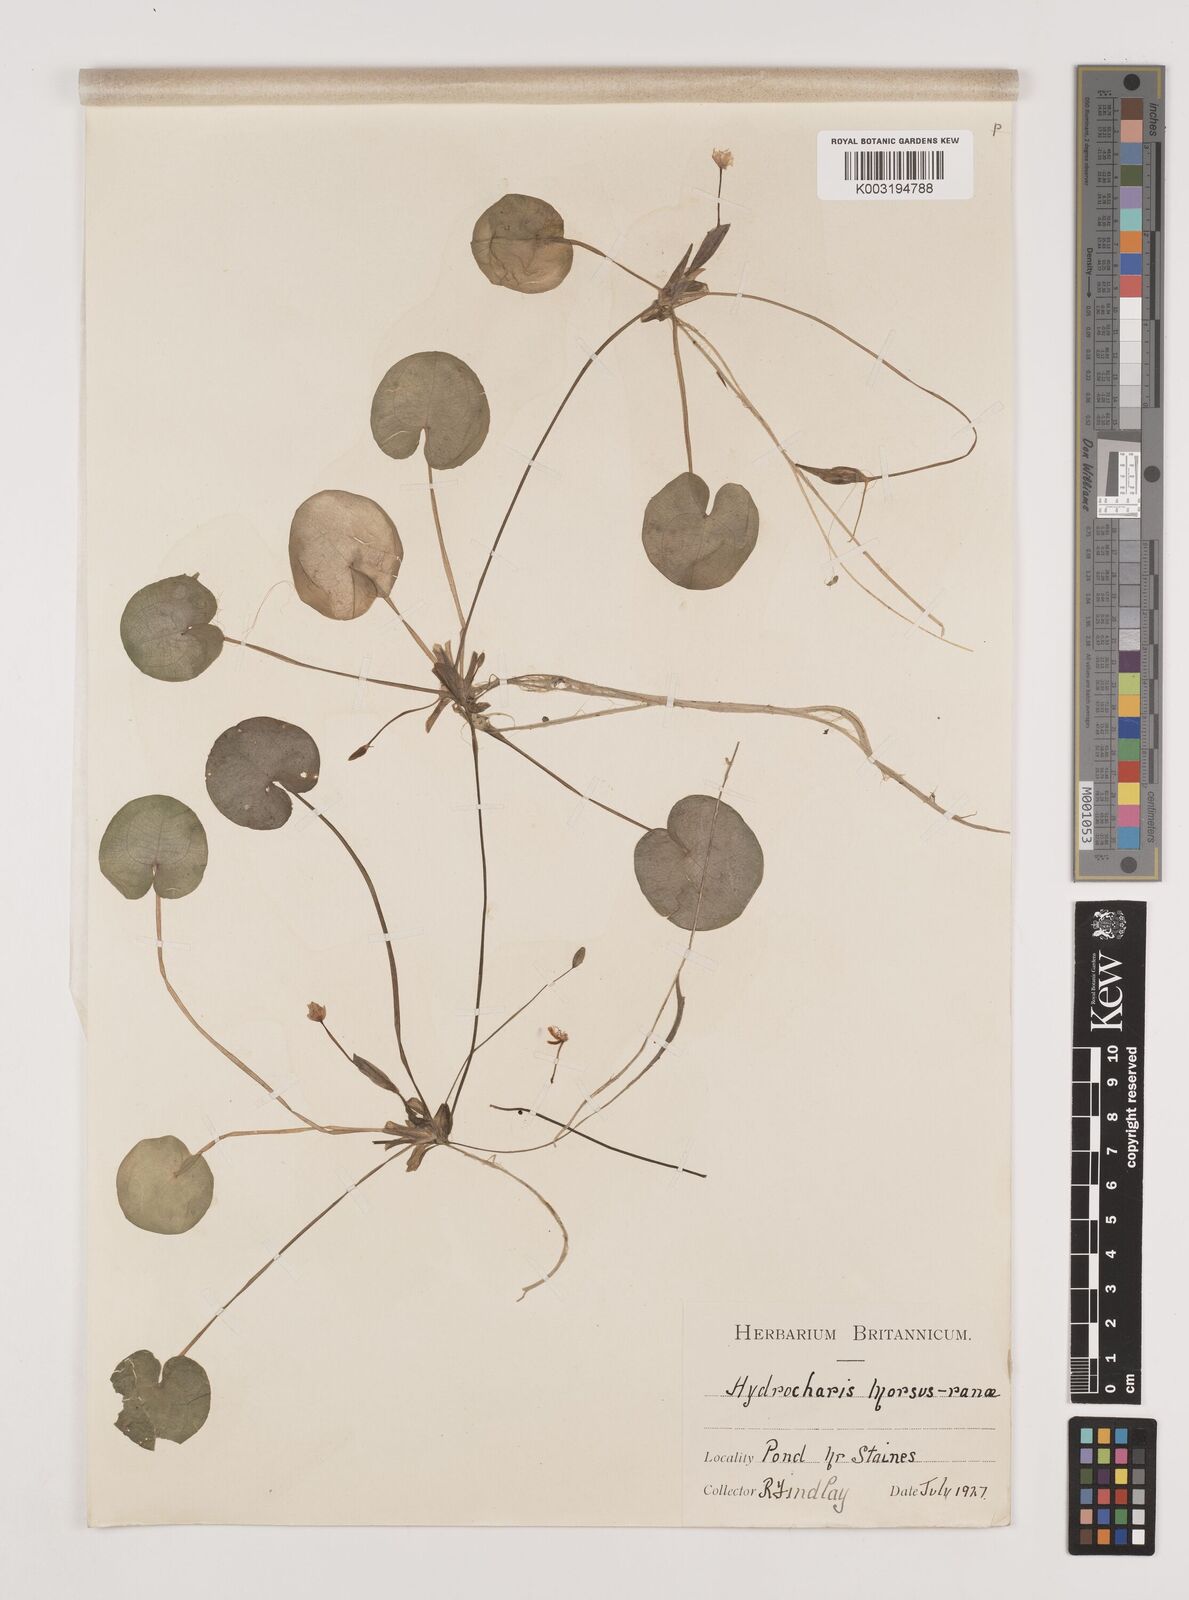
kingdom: Plantae
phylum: Tracheophyta
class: Liliopsida
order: Alismatales
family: Hydrocharitaceae
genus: Hydrocharis
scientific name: Hydrocharis morsus-ranae
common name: Frogbit
